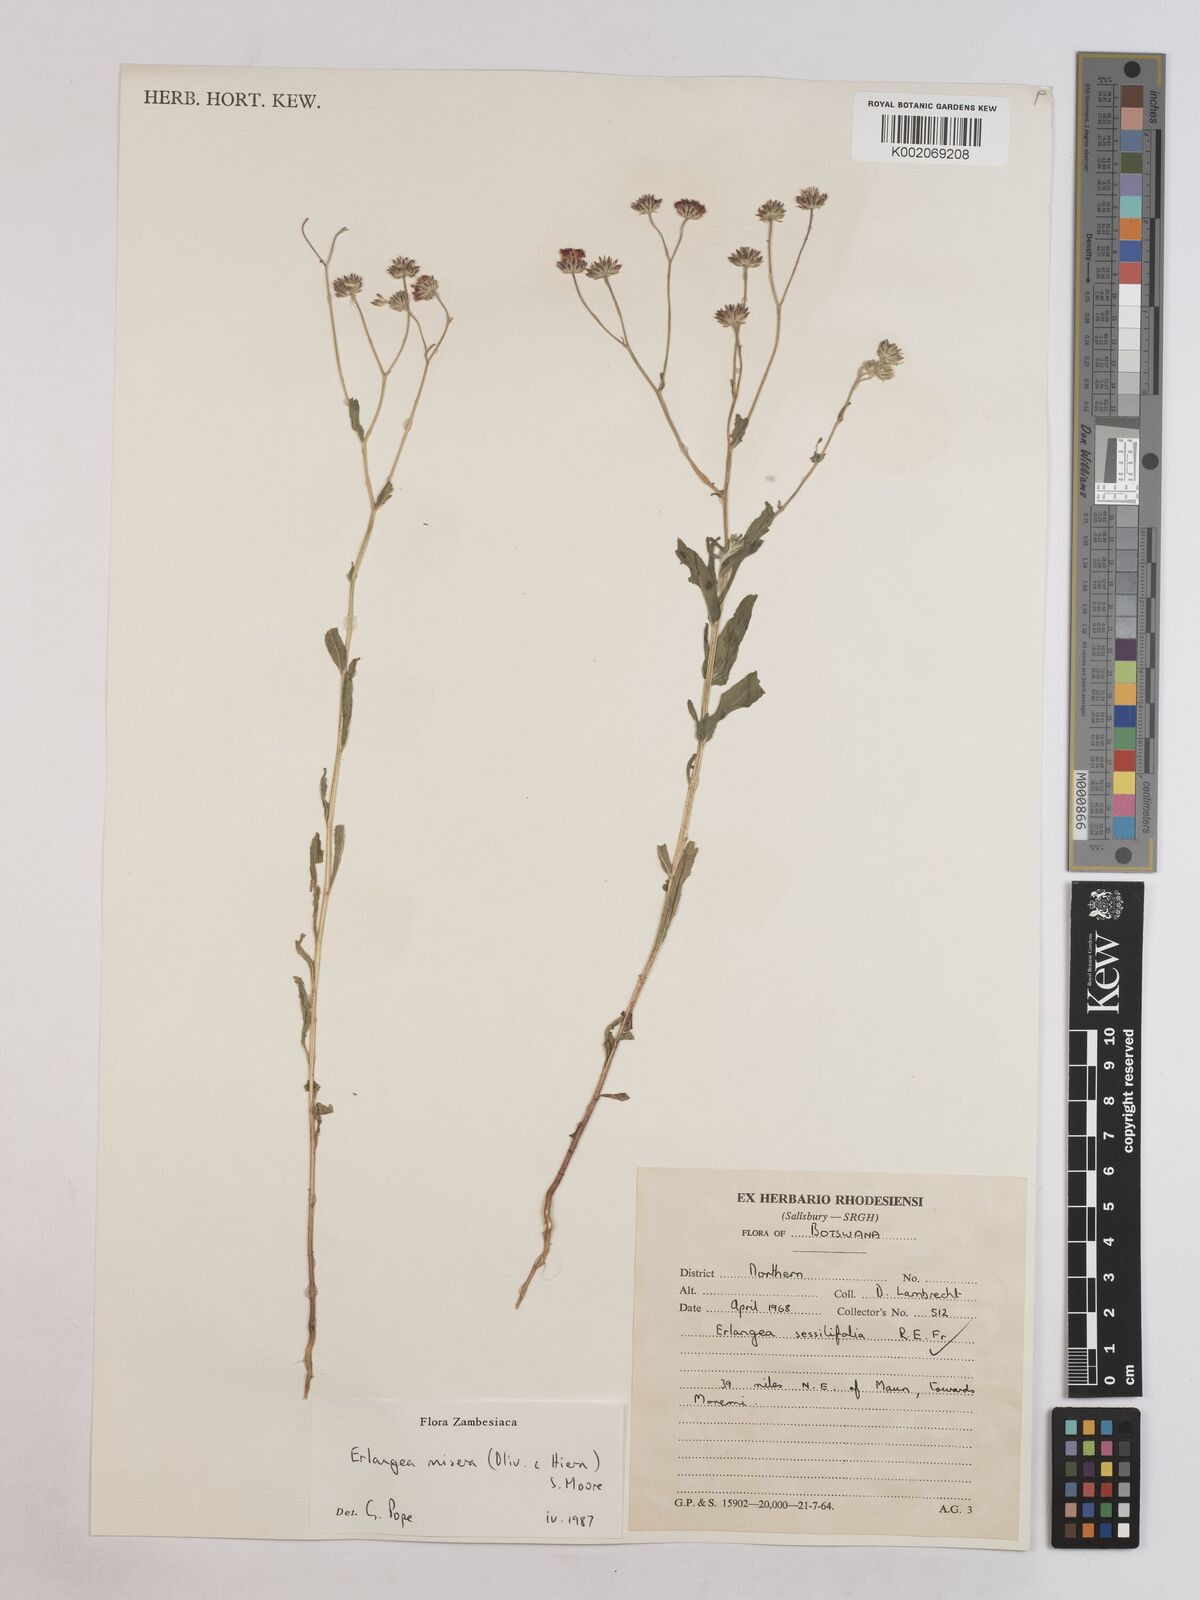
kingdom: Plantae
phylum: Tracheophyta
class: Magnoliopsida
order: Asterales
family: Asteraceae
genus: Erlangea
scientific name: Erlangea misera
